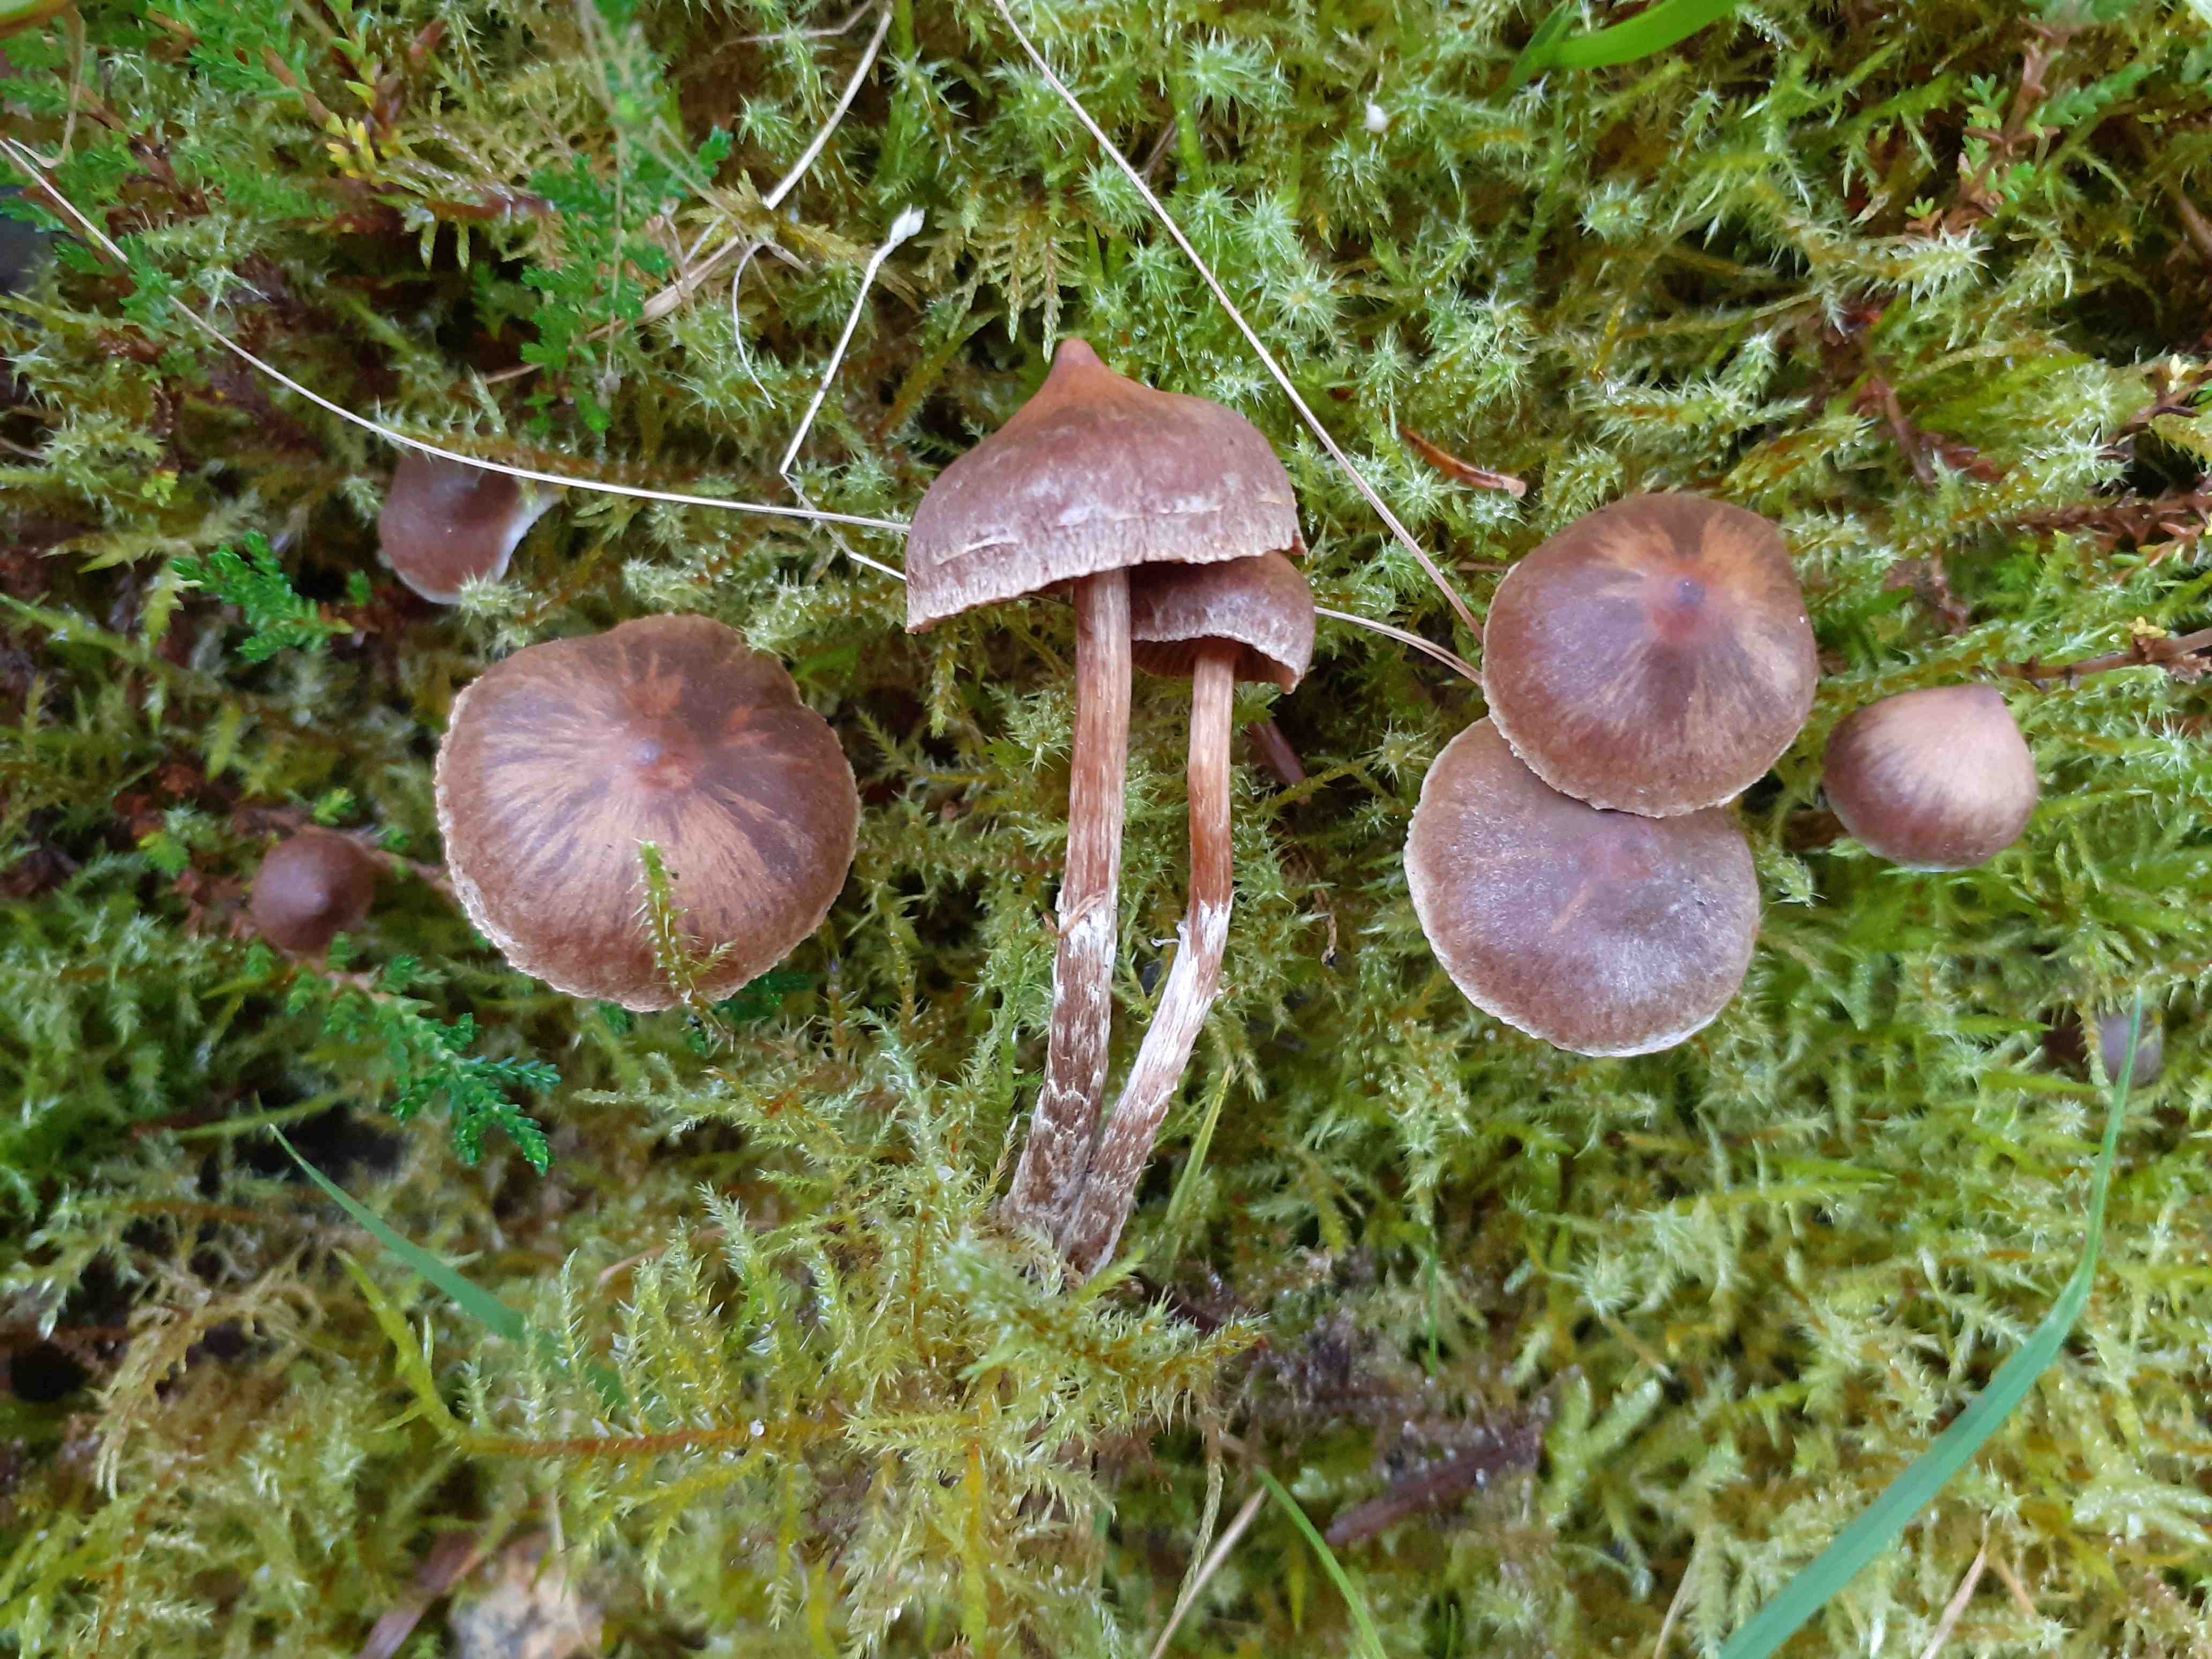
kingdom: Fungi
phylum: Basidiomycota
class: Agaricomycetes
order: Agaricales
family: Cortinariaceae
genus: Cortinarius
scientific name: Cortinarius desertorum
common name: skær slørhat
